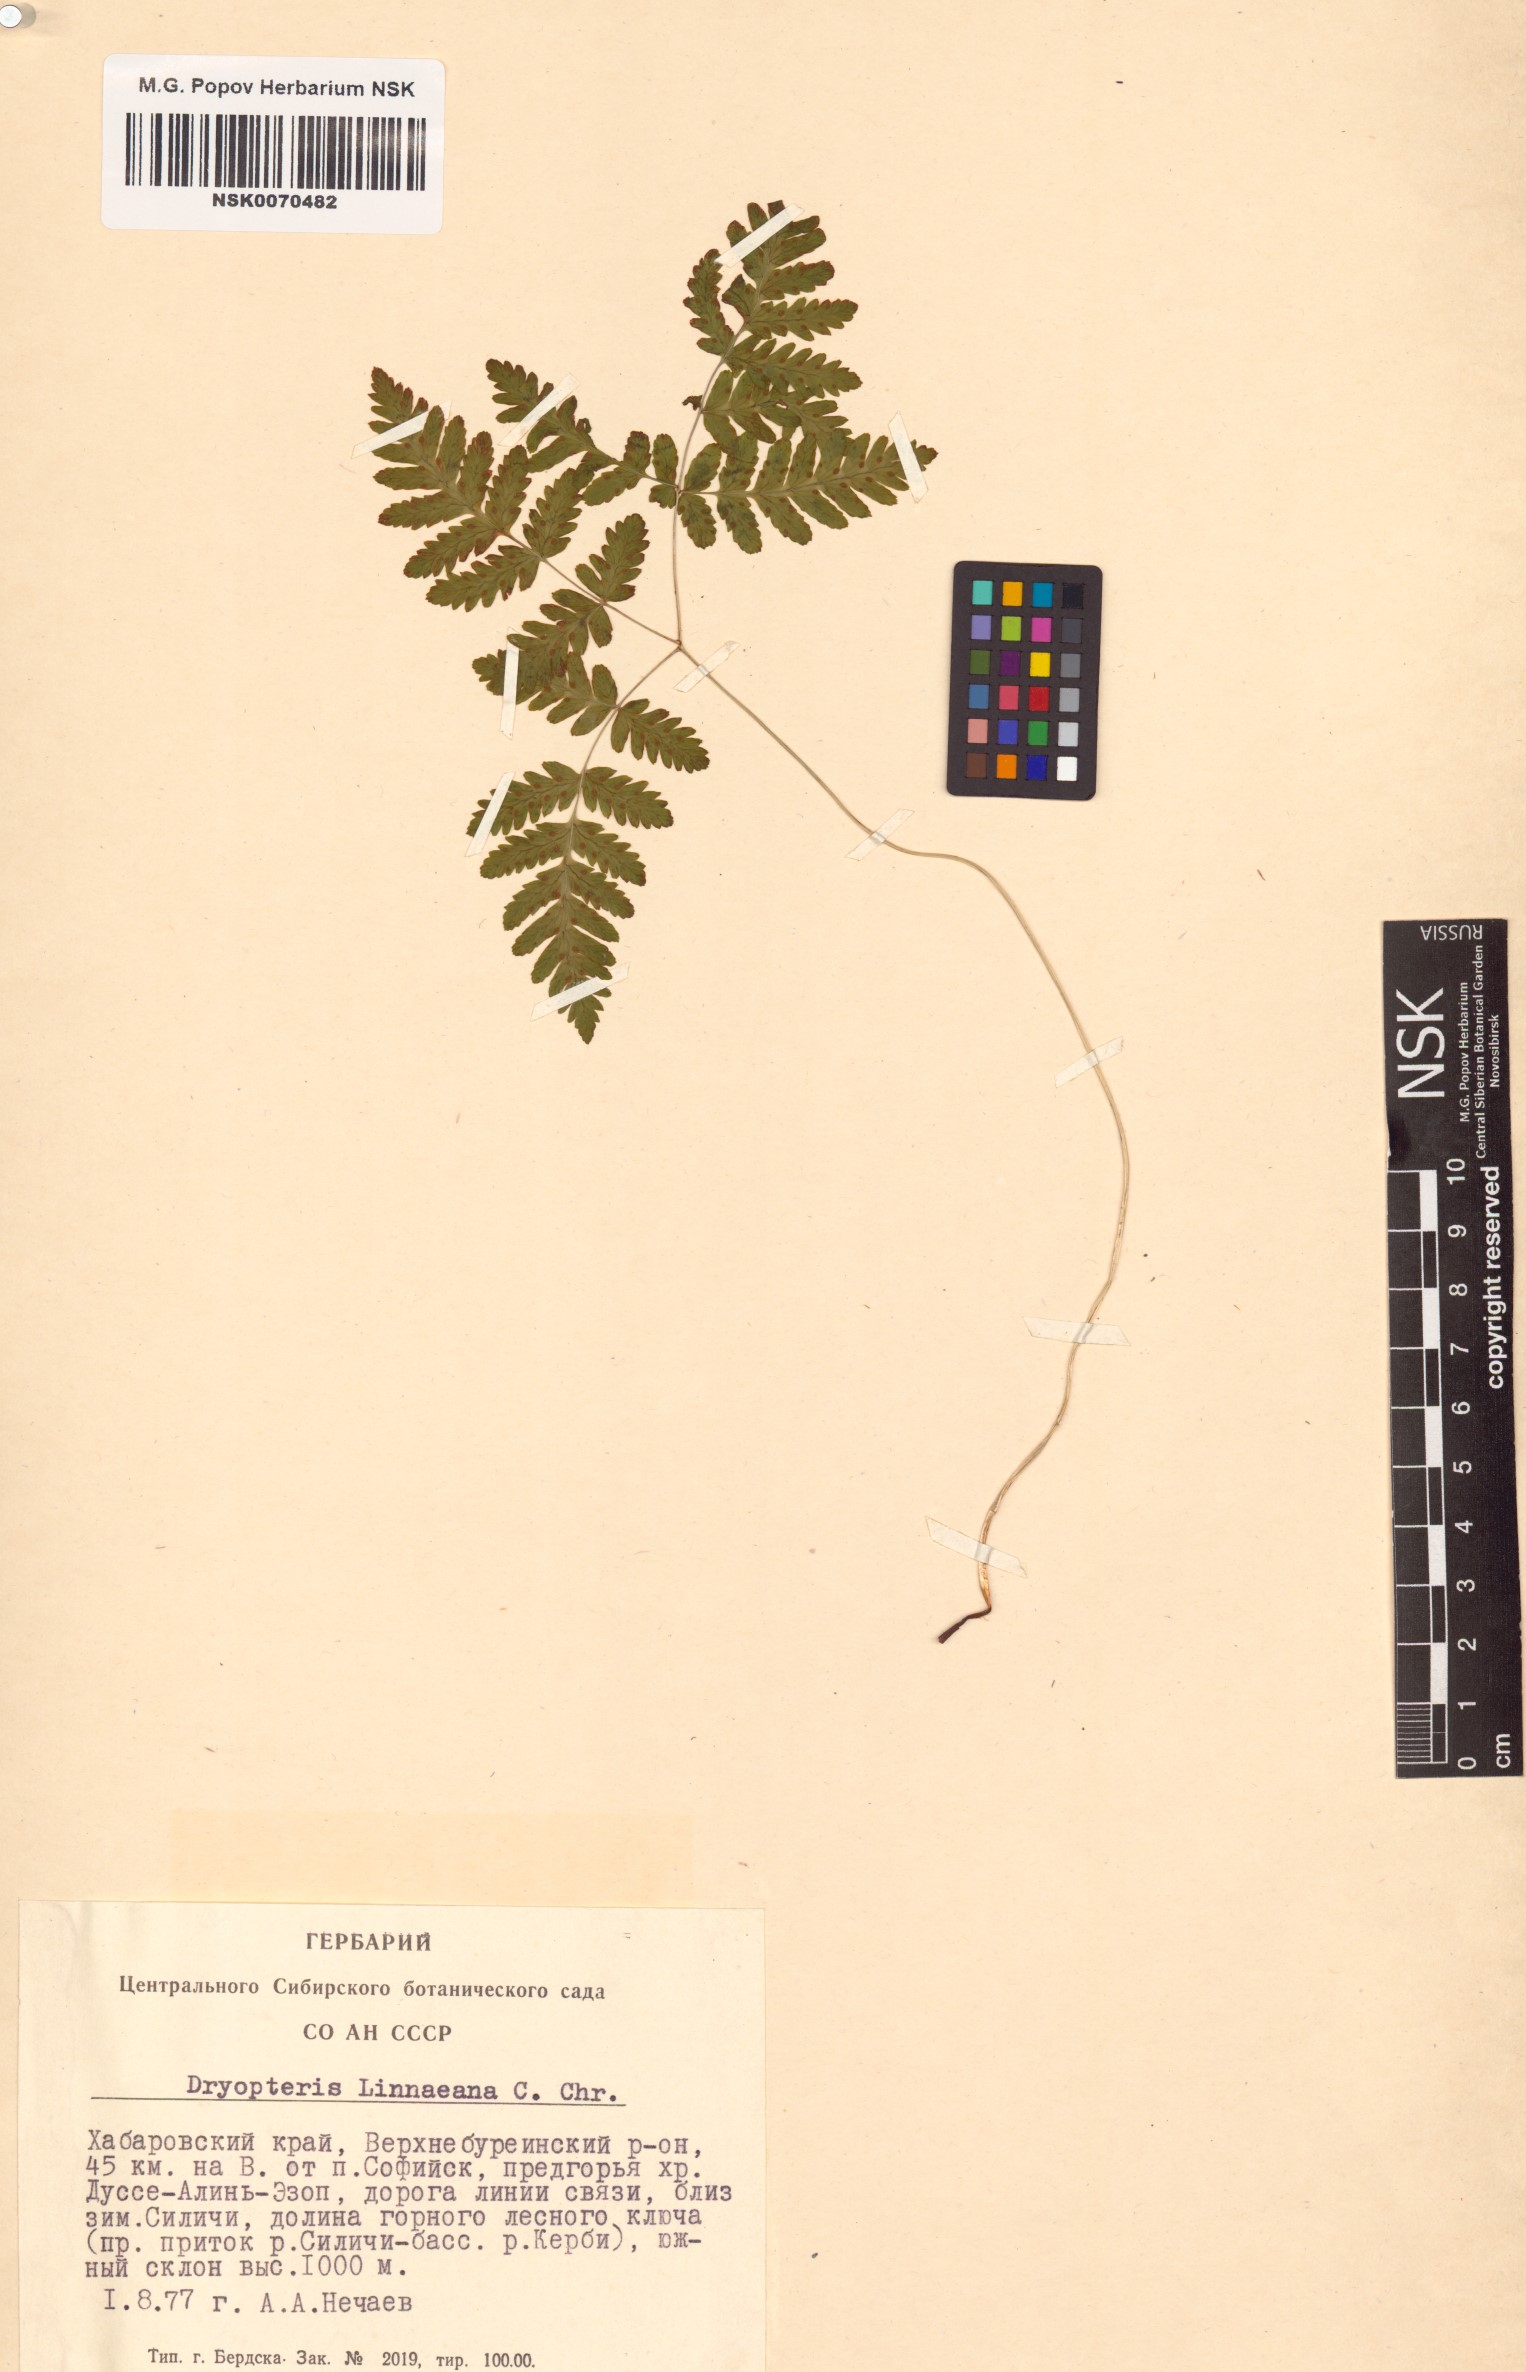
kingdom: Plantae
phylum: Tracheophyta
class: Polypodiopsida
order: Polypodiales
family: Cystopteridaceae
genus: Gymnocarpium
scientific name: Gymnocarpium dryopteris
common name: Oak fern
